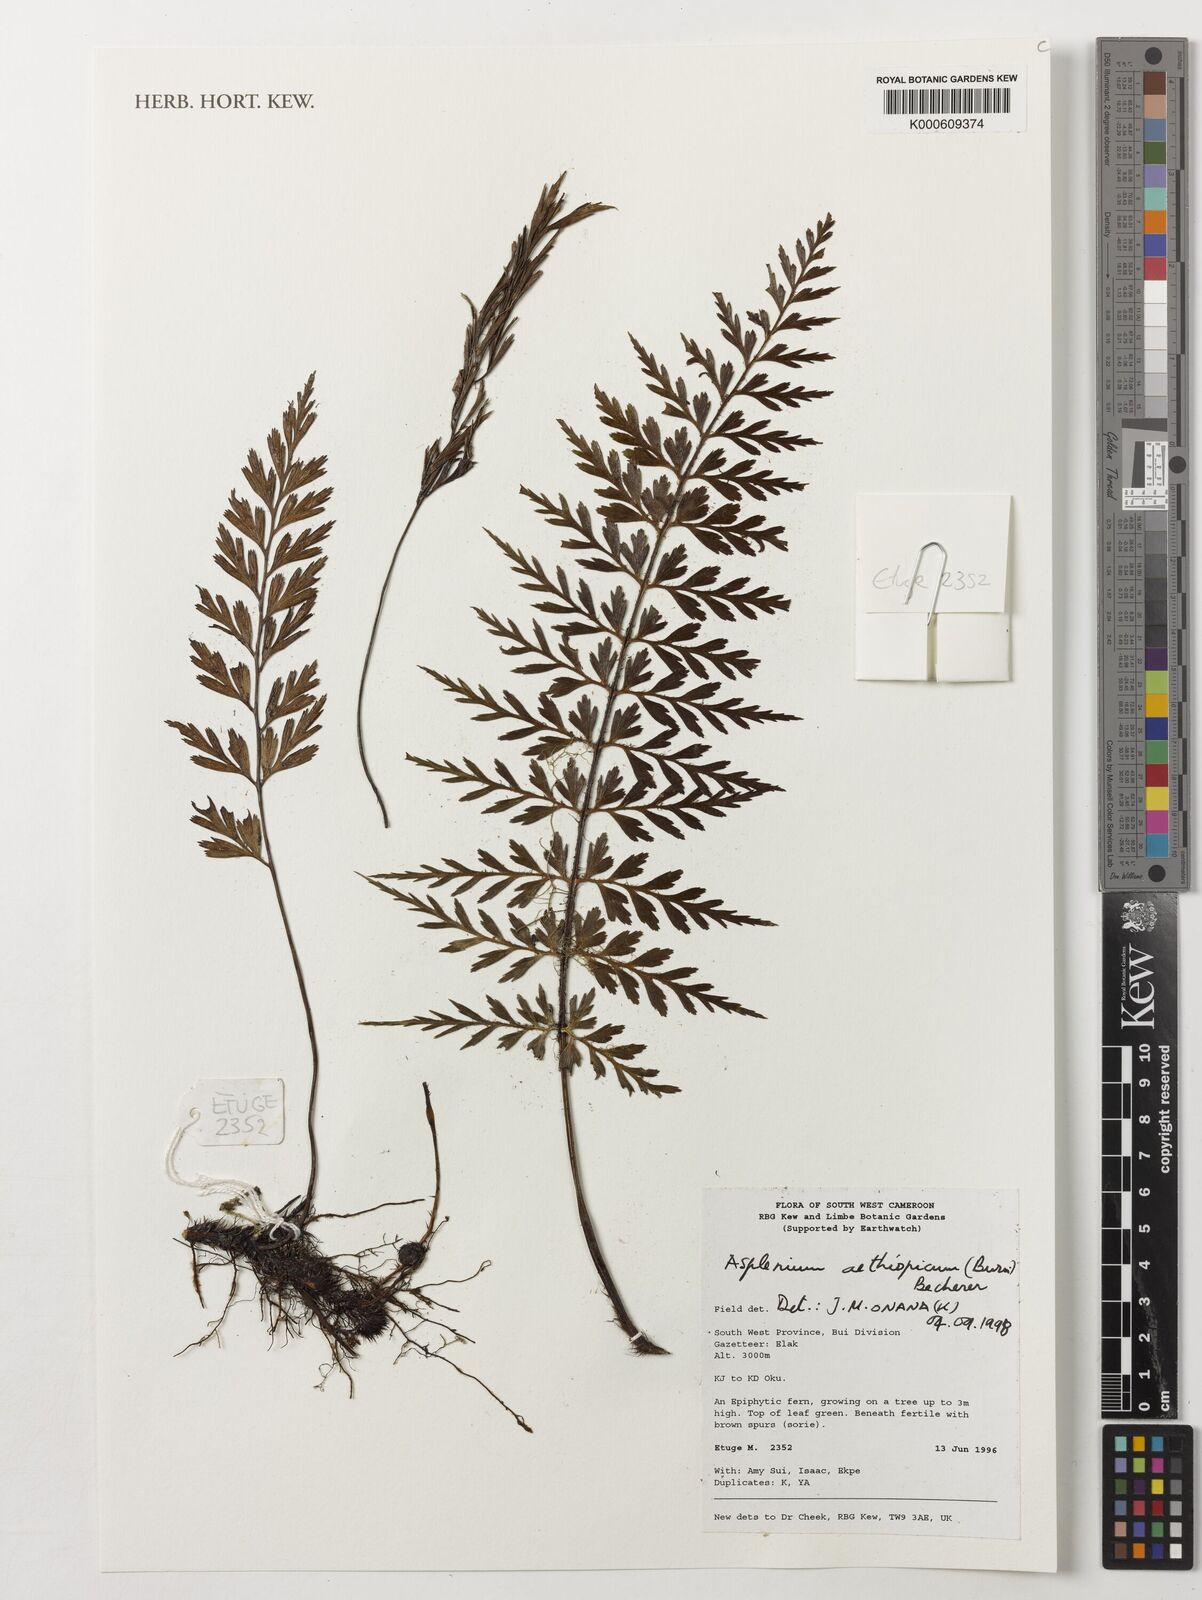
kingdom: Plantae
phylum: Tracheophyta
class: Polypodiopsida
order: Polypodiales
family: Aspleniaceae
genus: Asplenium
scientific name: Asplenium aethiopicum
